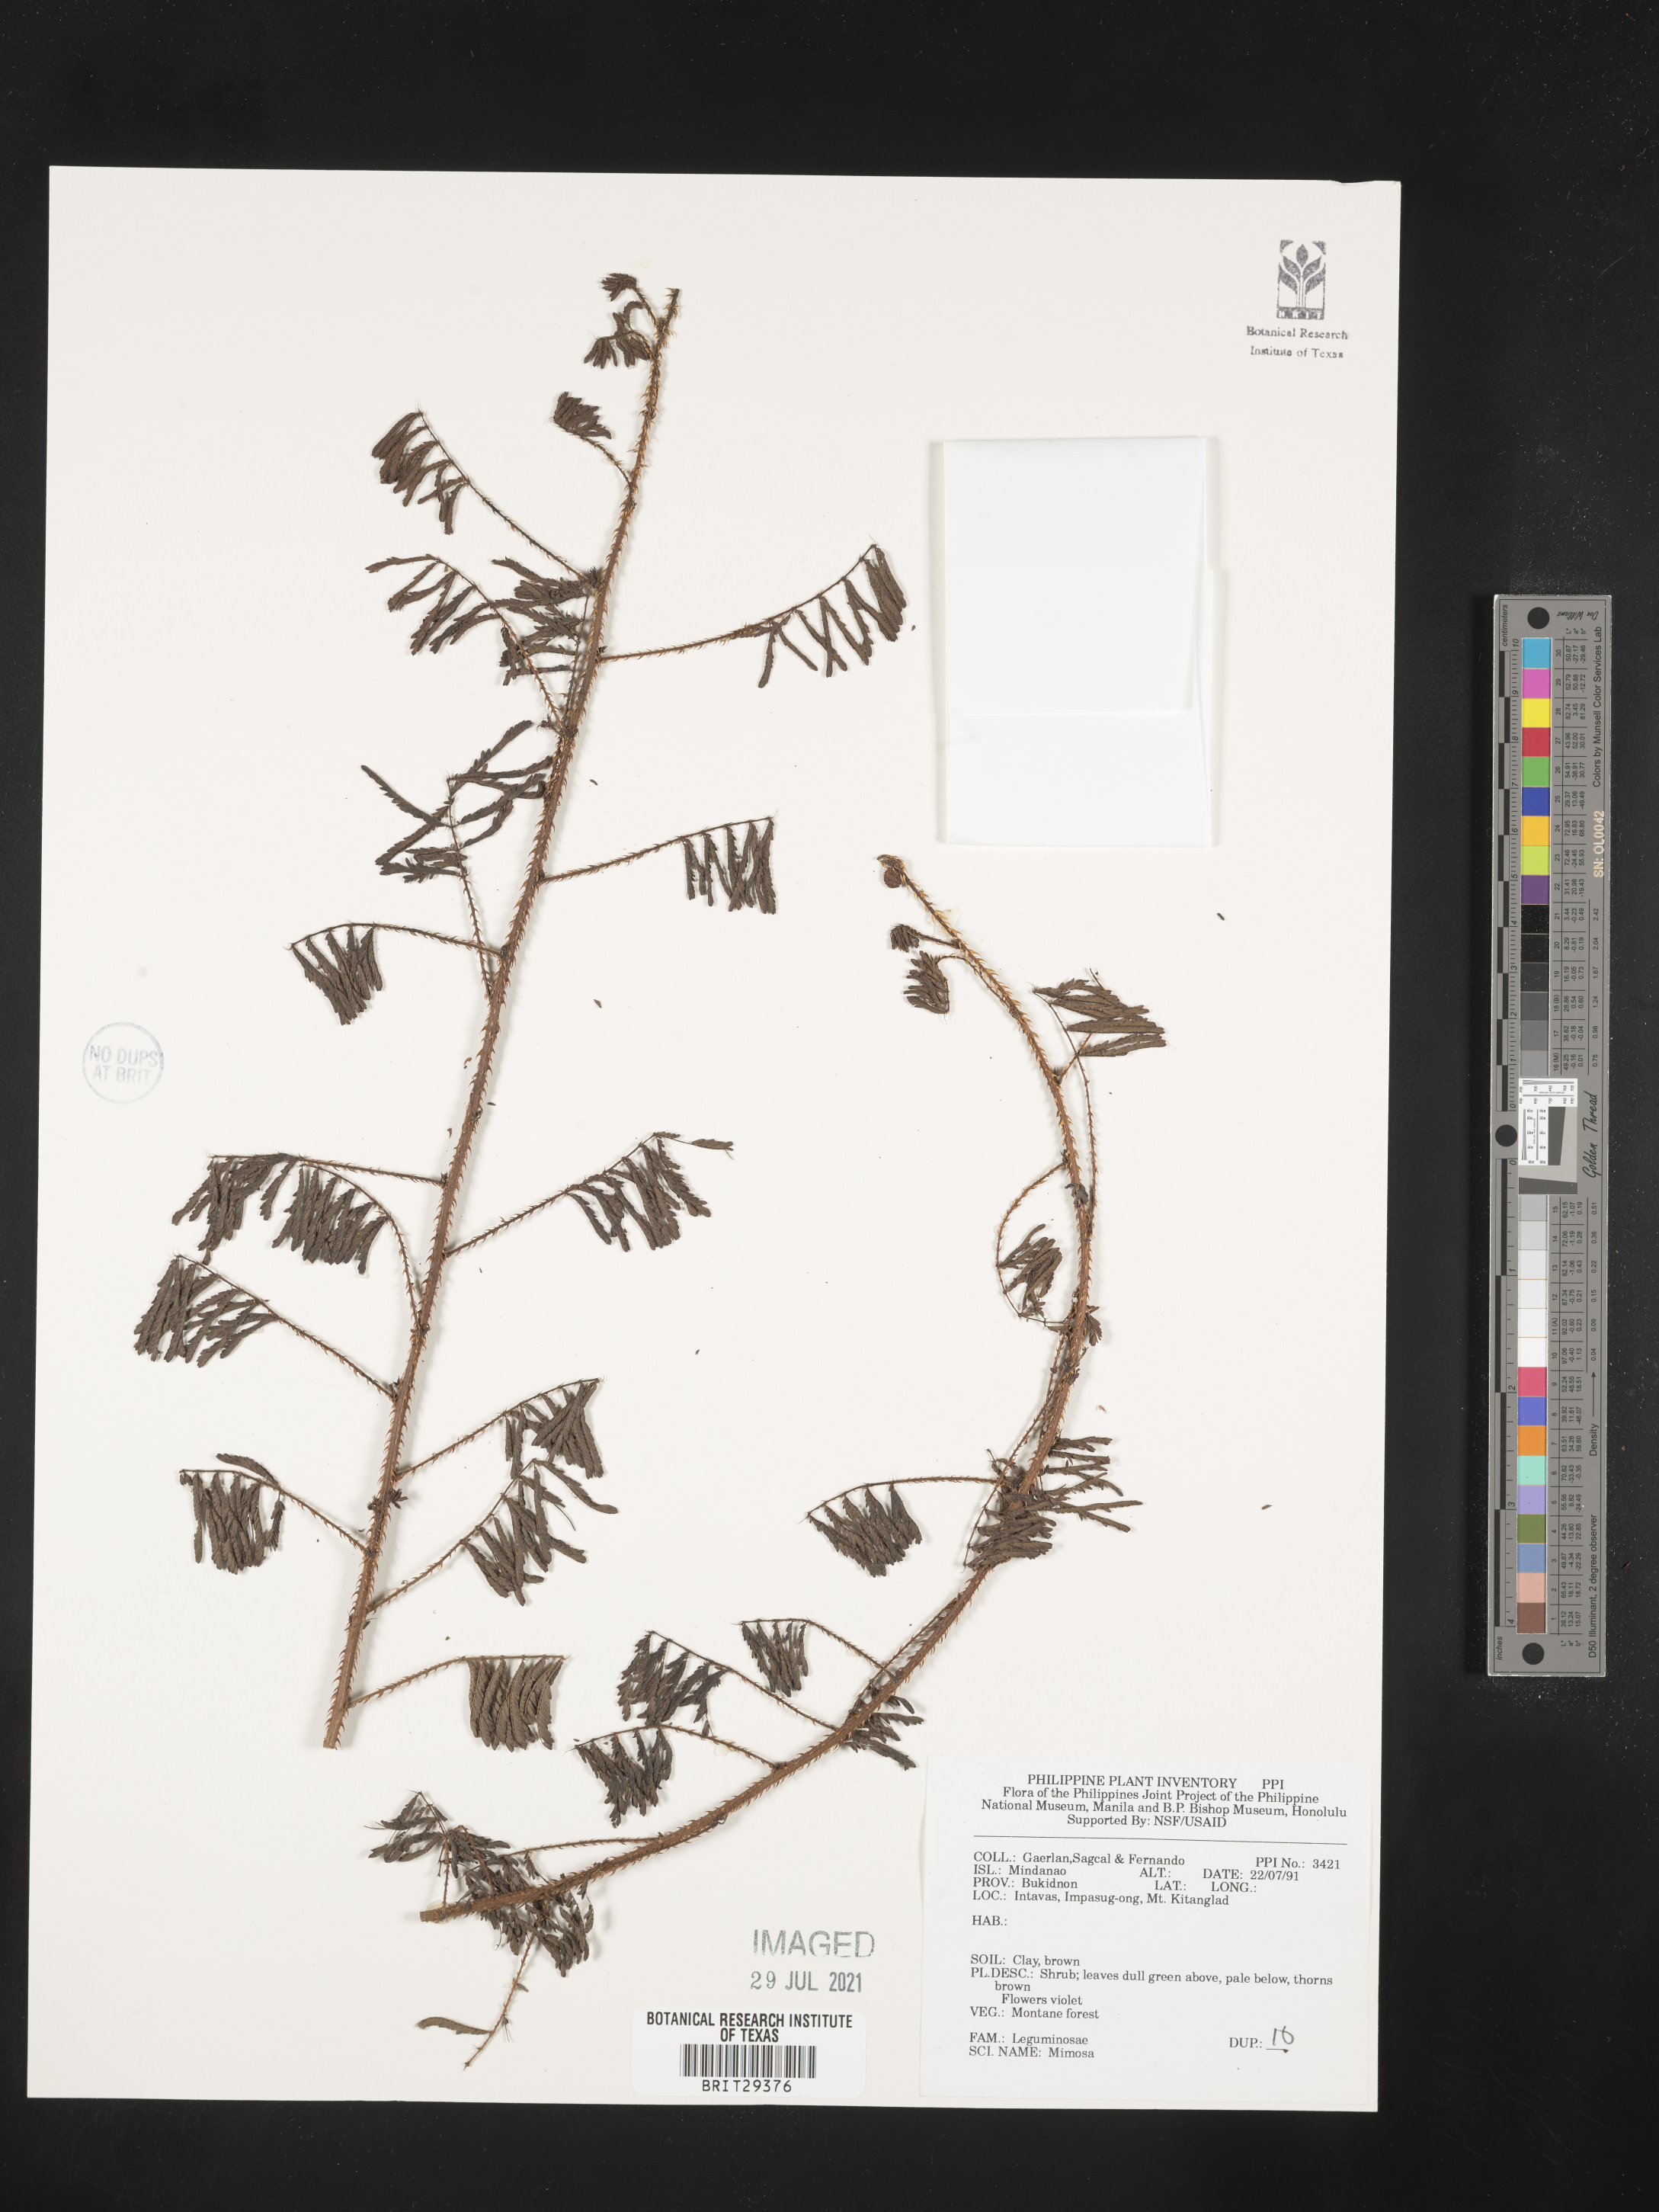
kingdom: Plantae
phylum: Tracheophyta
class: Magnoliopsida
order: Fabales
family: Fabaceae
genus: Mimosa
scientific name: Mimosa
